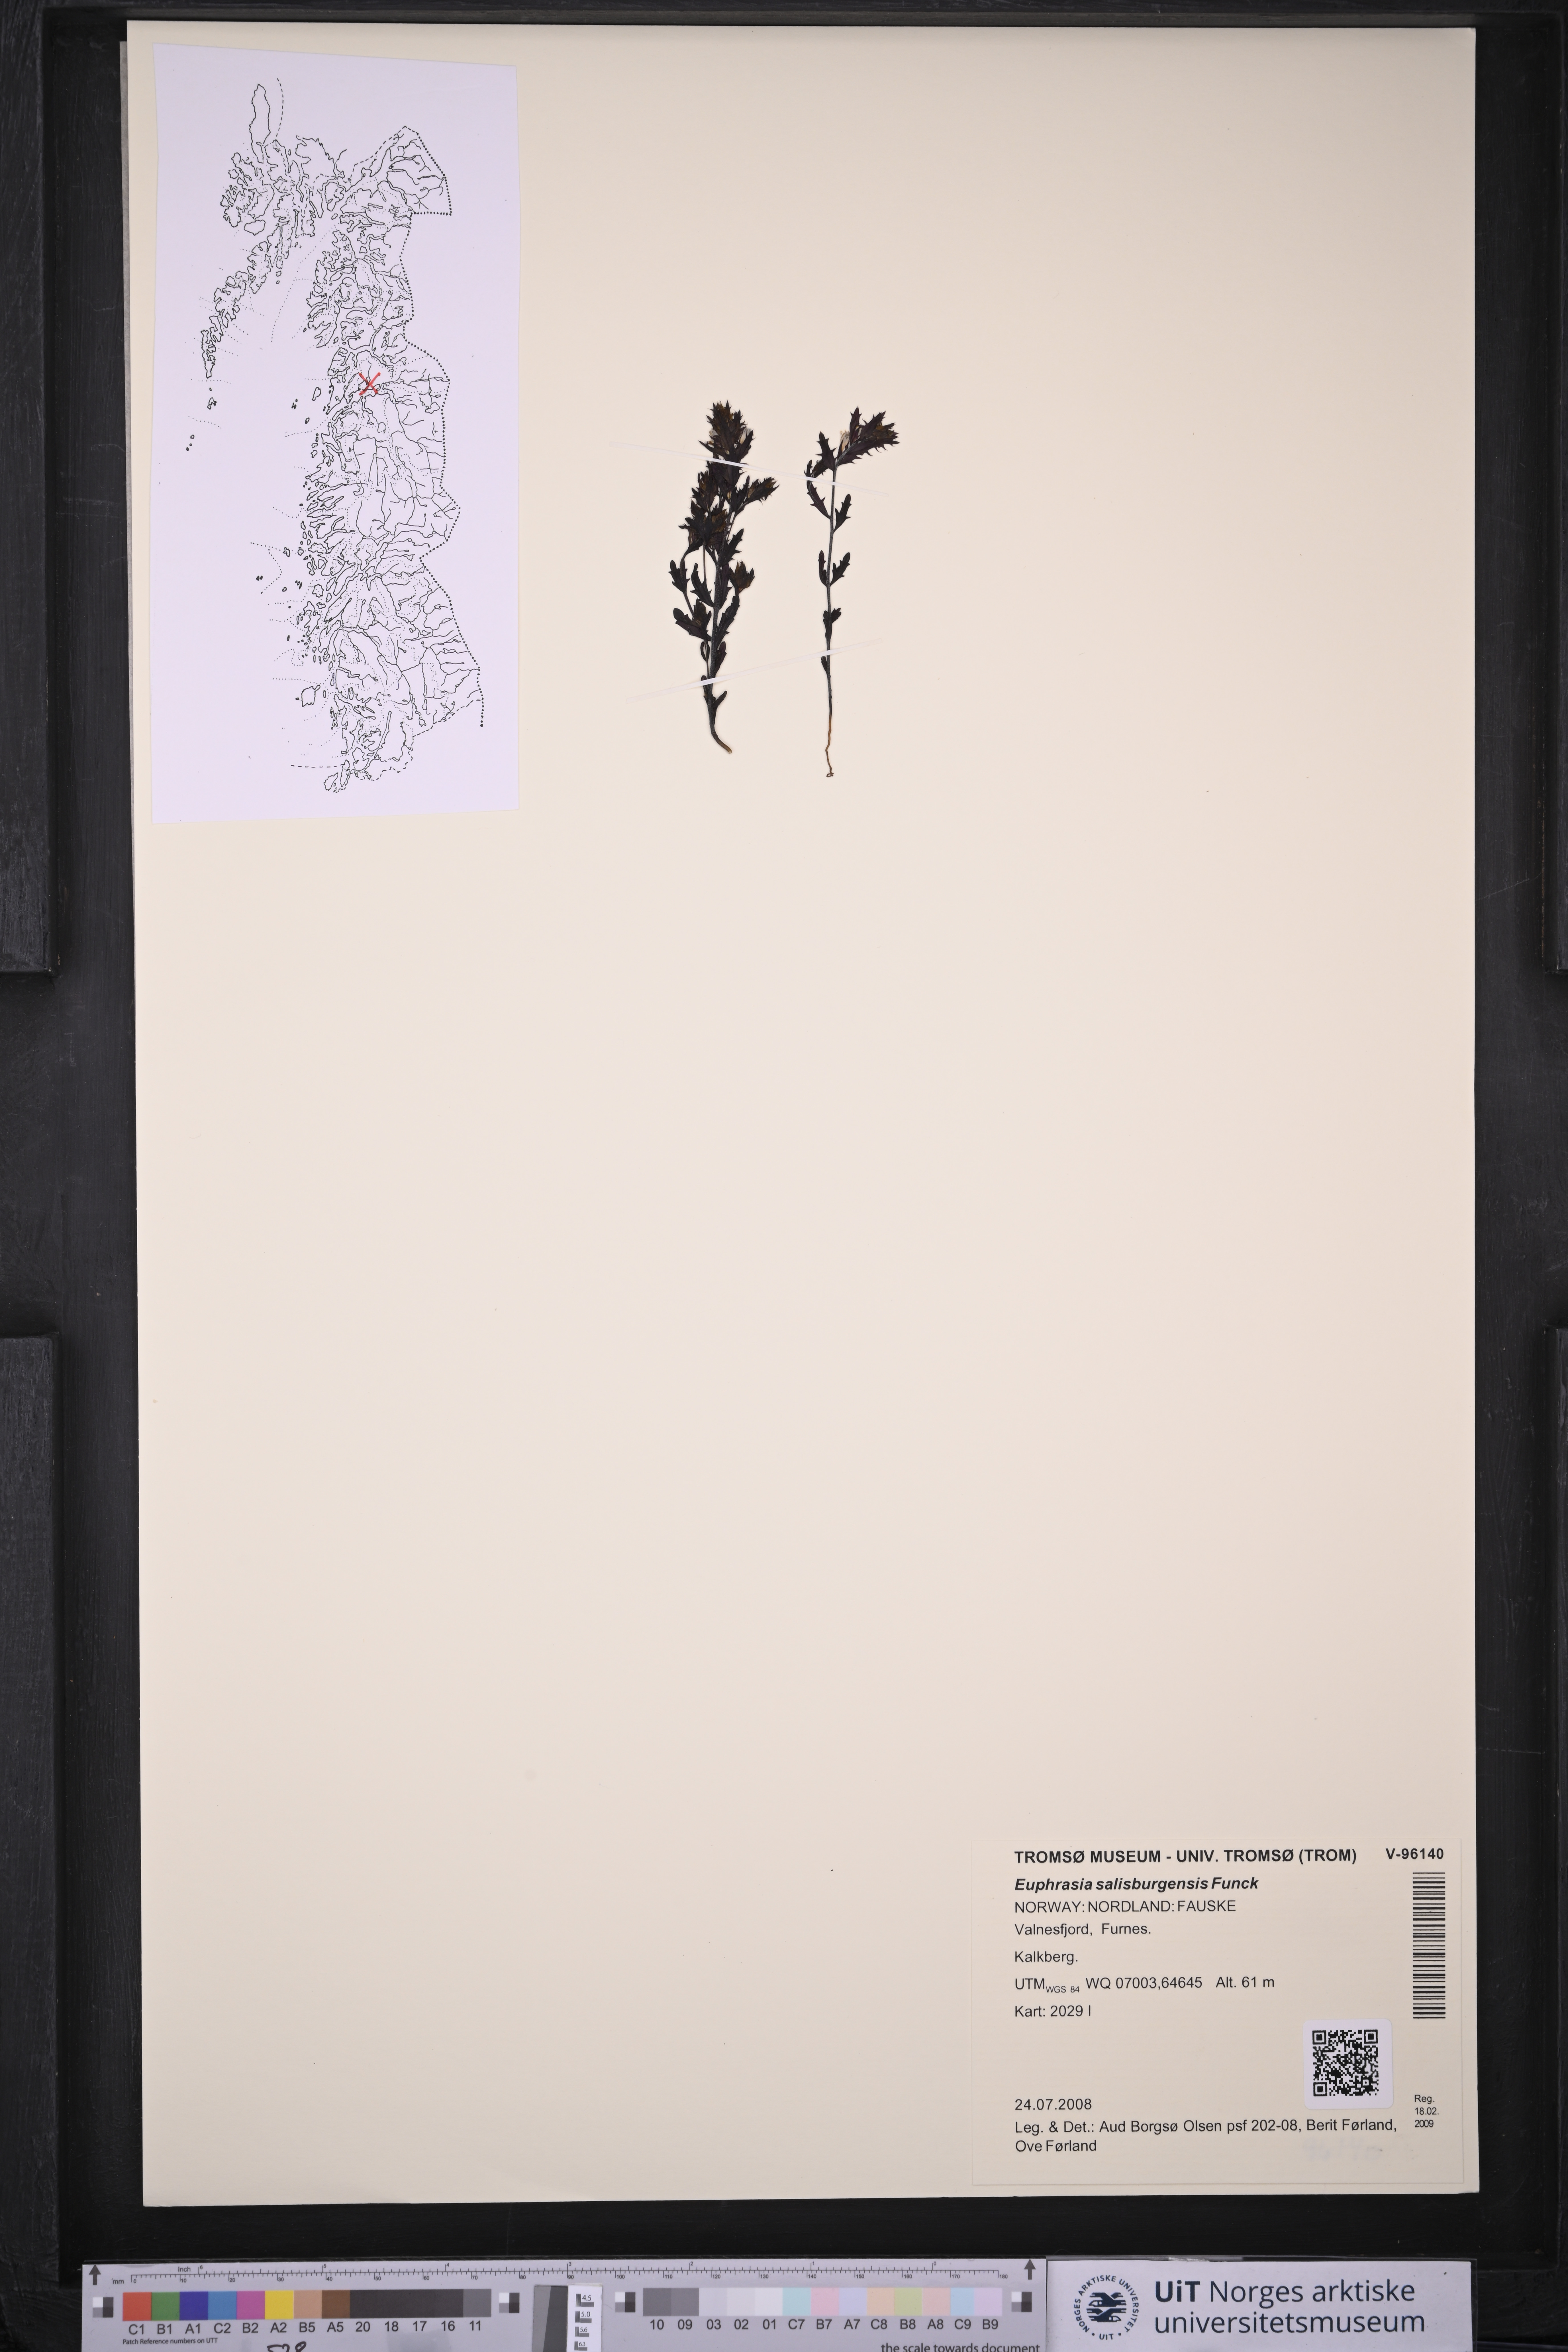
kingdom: Plantae
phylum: Tracheophyta
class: Magnoliopsida
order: Lamiales
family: Orobanchaceae
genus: Euphrasia
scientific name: Euphrasia salisburgensis
